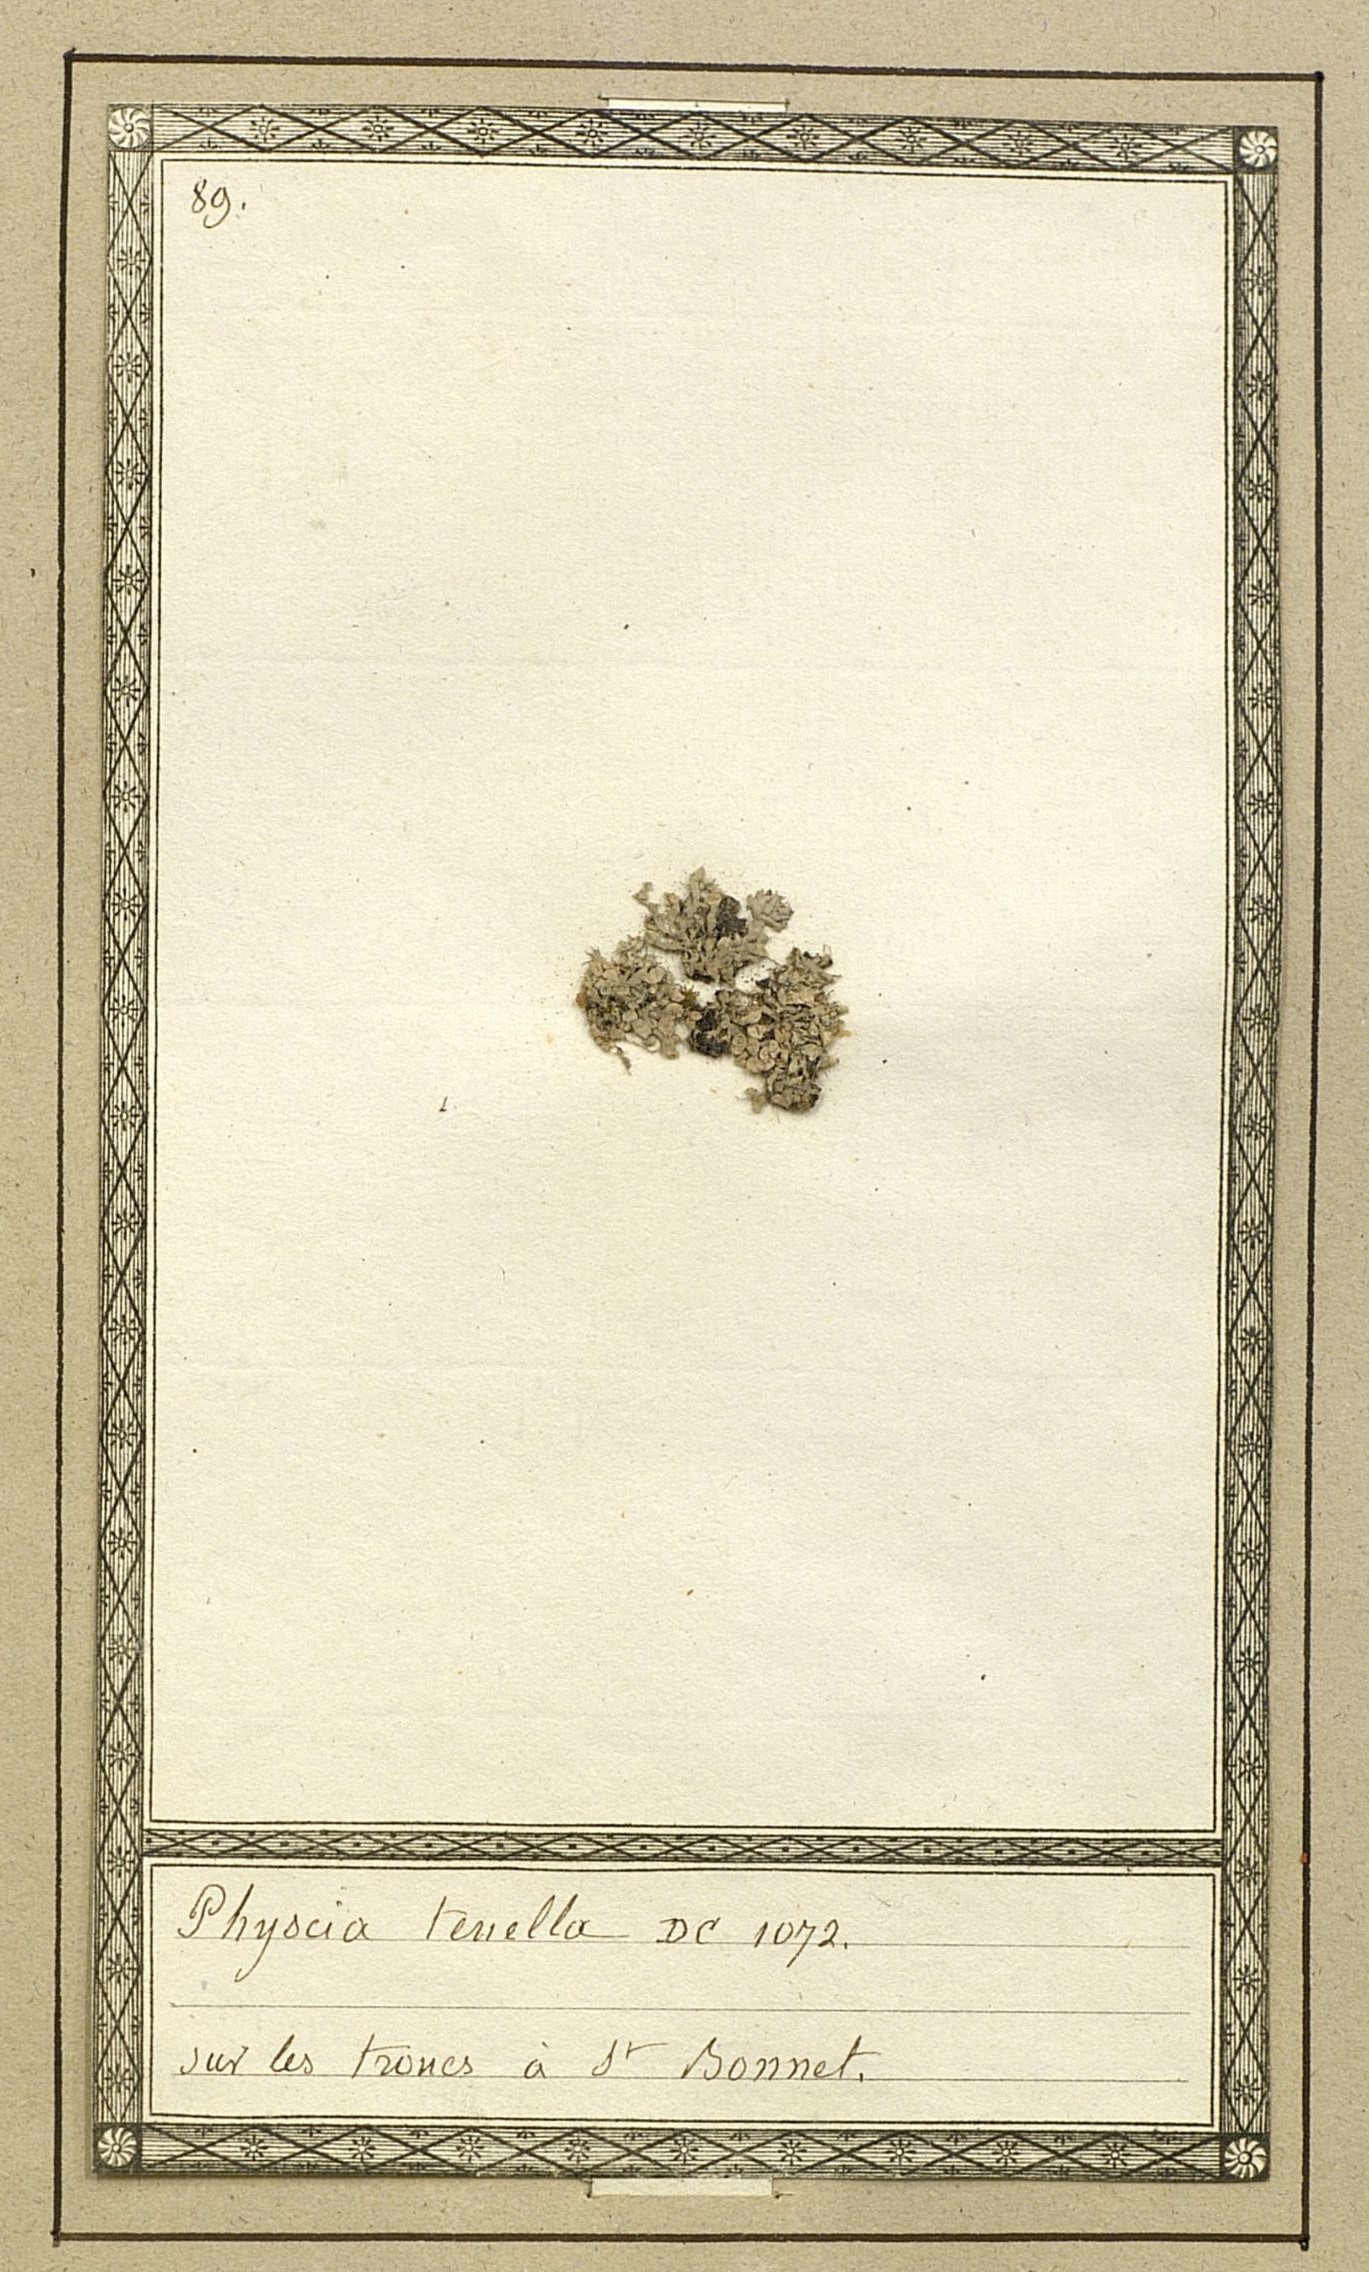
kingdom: Fungi
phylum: Ascomycota
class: Lecanoromycetes
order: Caliciales
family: Physciaceae
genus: Physcia
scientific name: Physcia tenella
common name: Fringed rosette lichen
